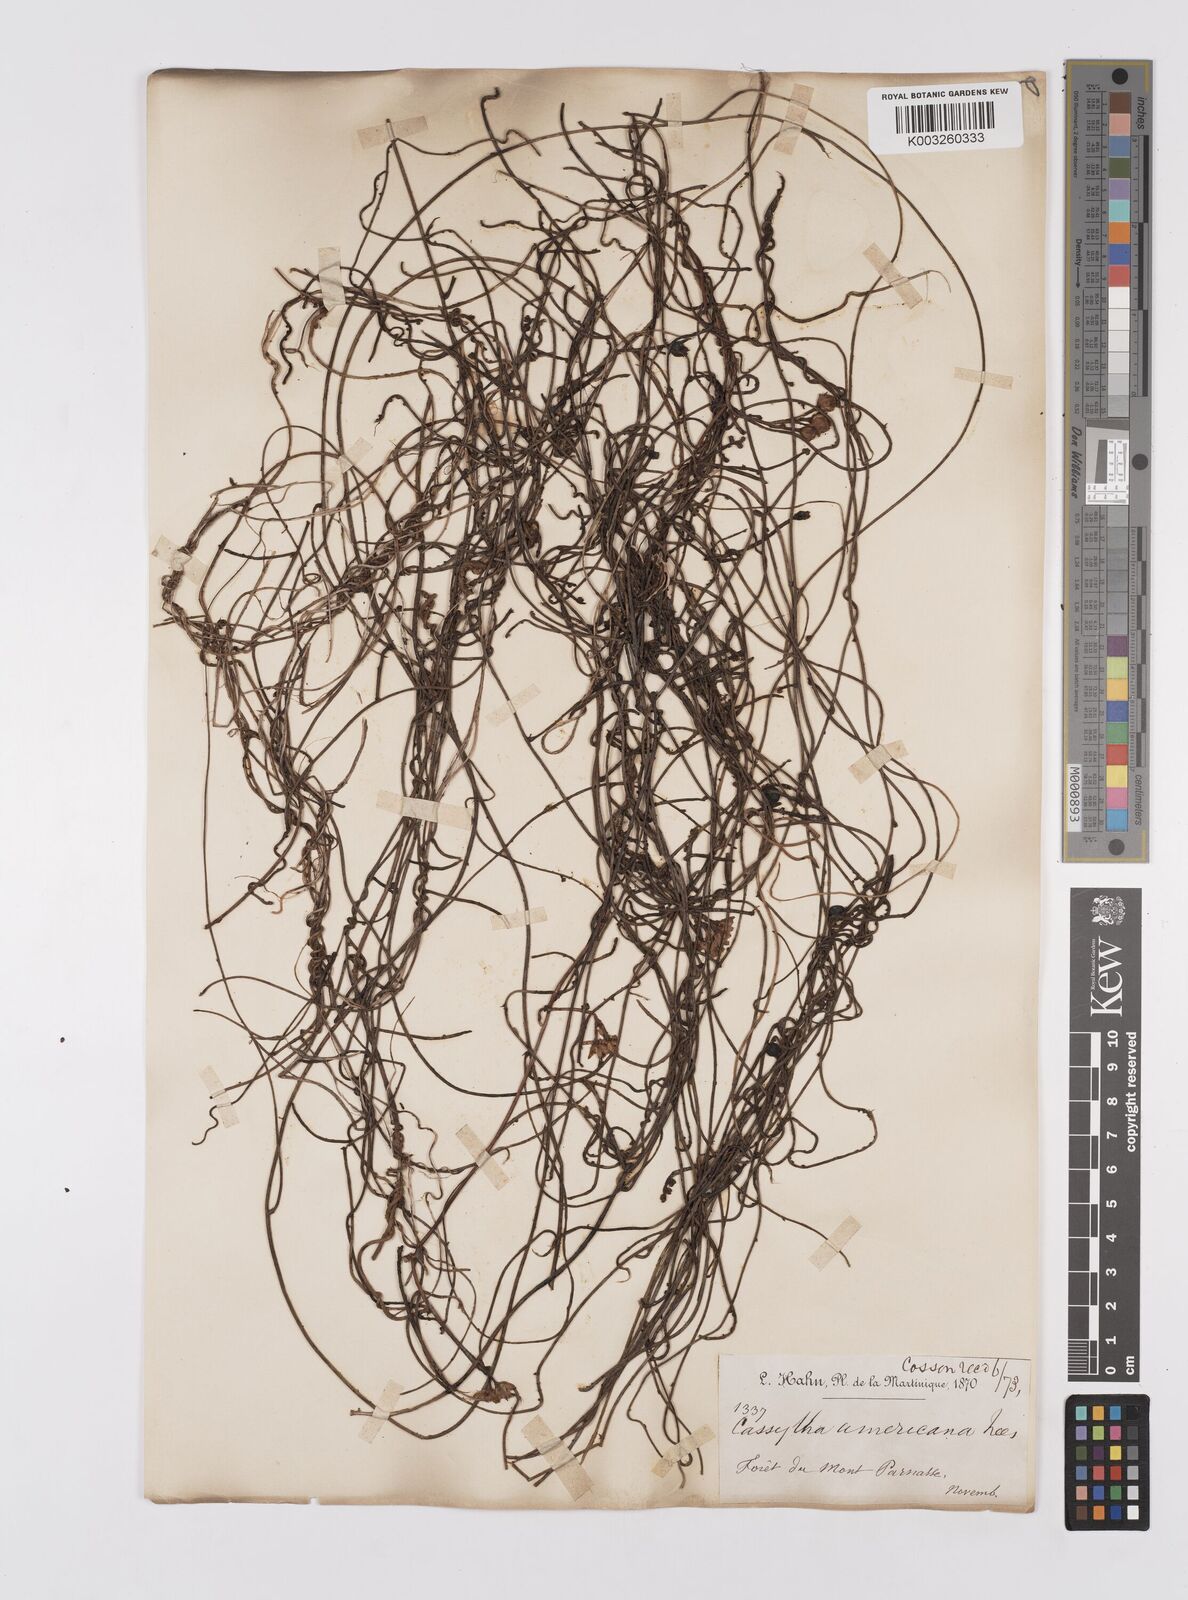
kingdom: Plantae
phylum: Tracheophyta
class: Magnoliopsida
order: Laurales
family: Lauraceae
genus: Cassytha
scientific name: Cassytha filiformis
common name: Dodder-laurel
